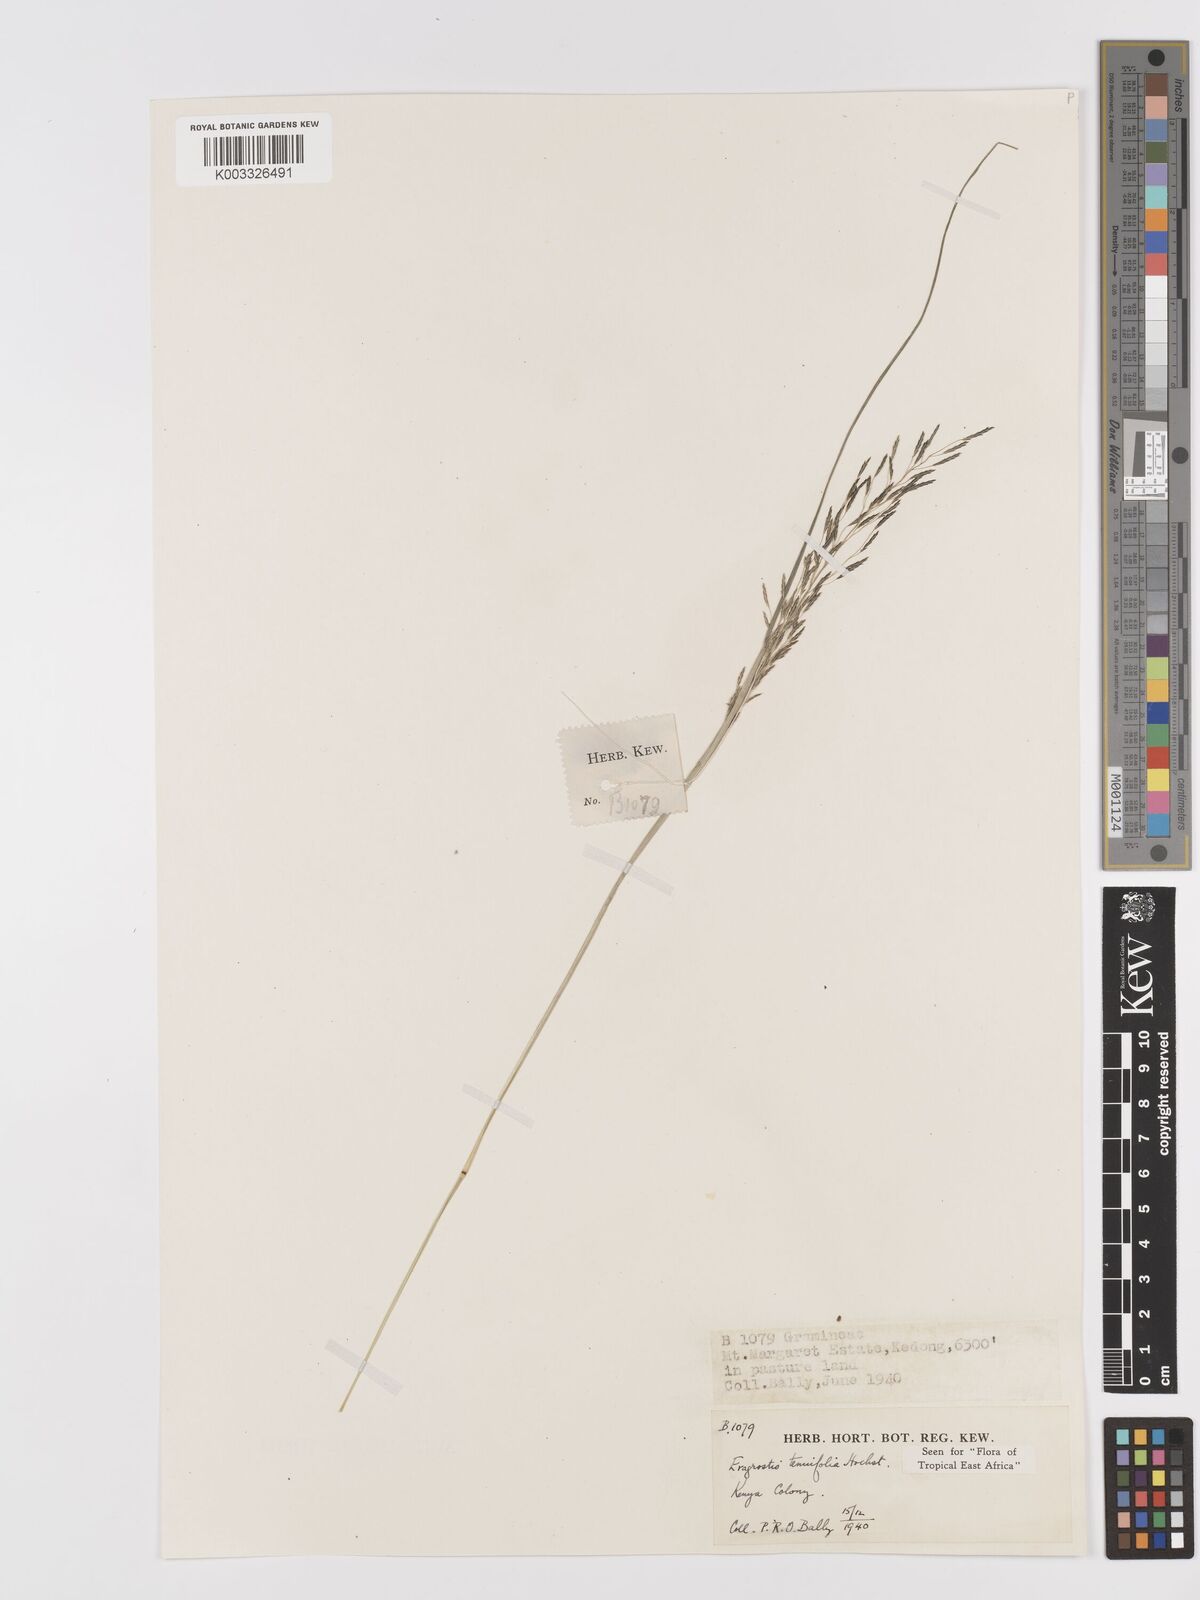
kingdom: Plantae
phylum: Tracheophyta
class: Liliopsida
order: Poales
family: Poaceae
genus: Eragrostis
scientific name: Eragrostis tenuifolia
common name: Elastic grass
